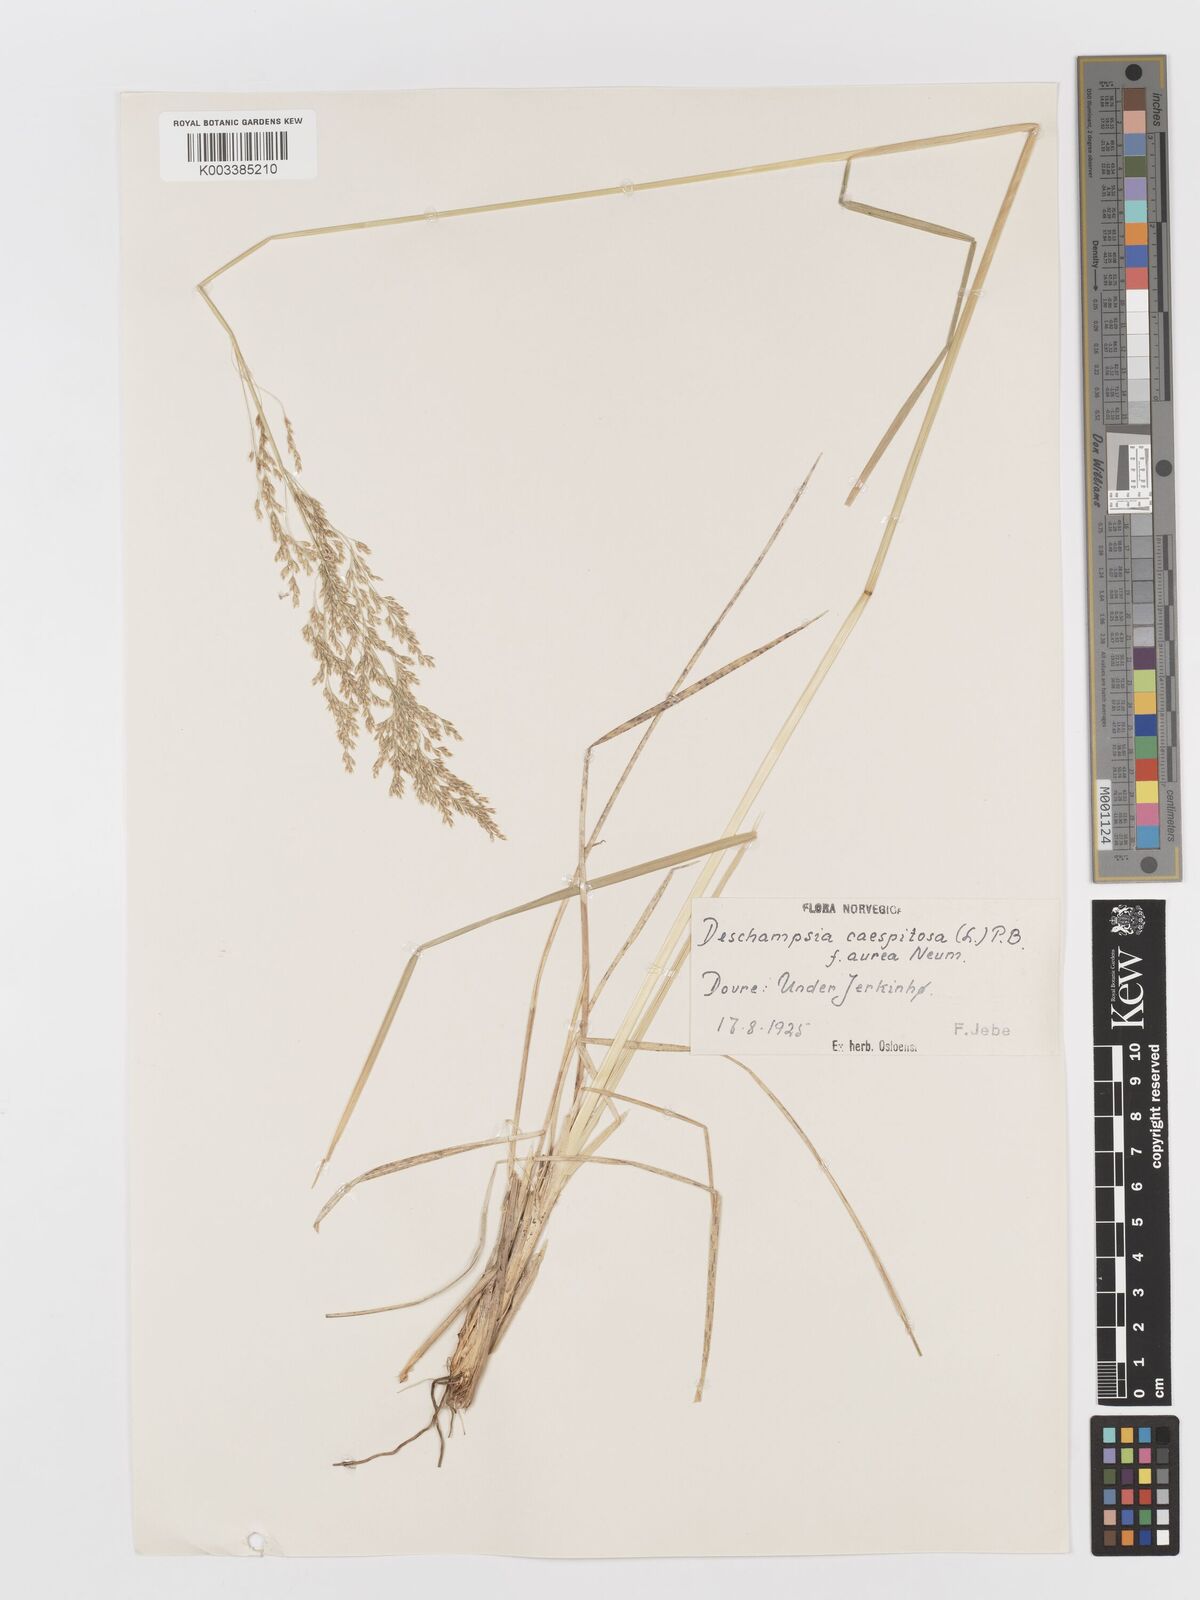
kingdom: Plantae
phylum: Tracheophyta
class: Liliopsida
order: Poales
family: Poaceae
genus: Deschampsia
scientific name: Deschampsia cespitosa
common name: Tufted hair-grass
